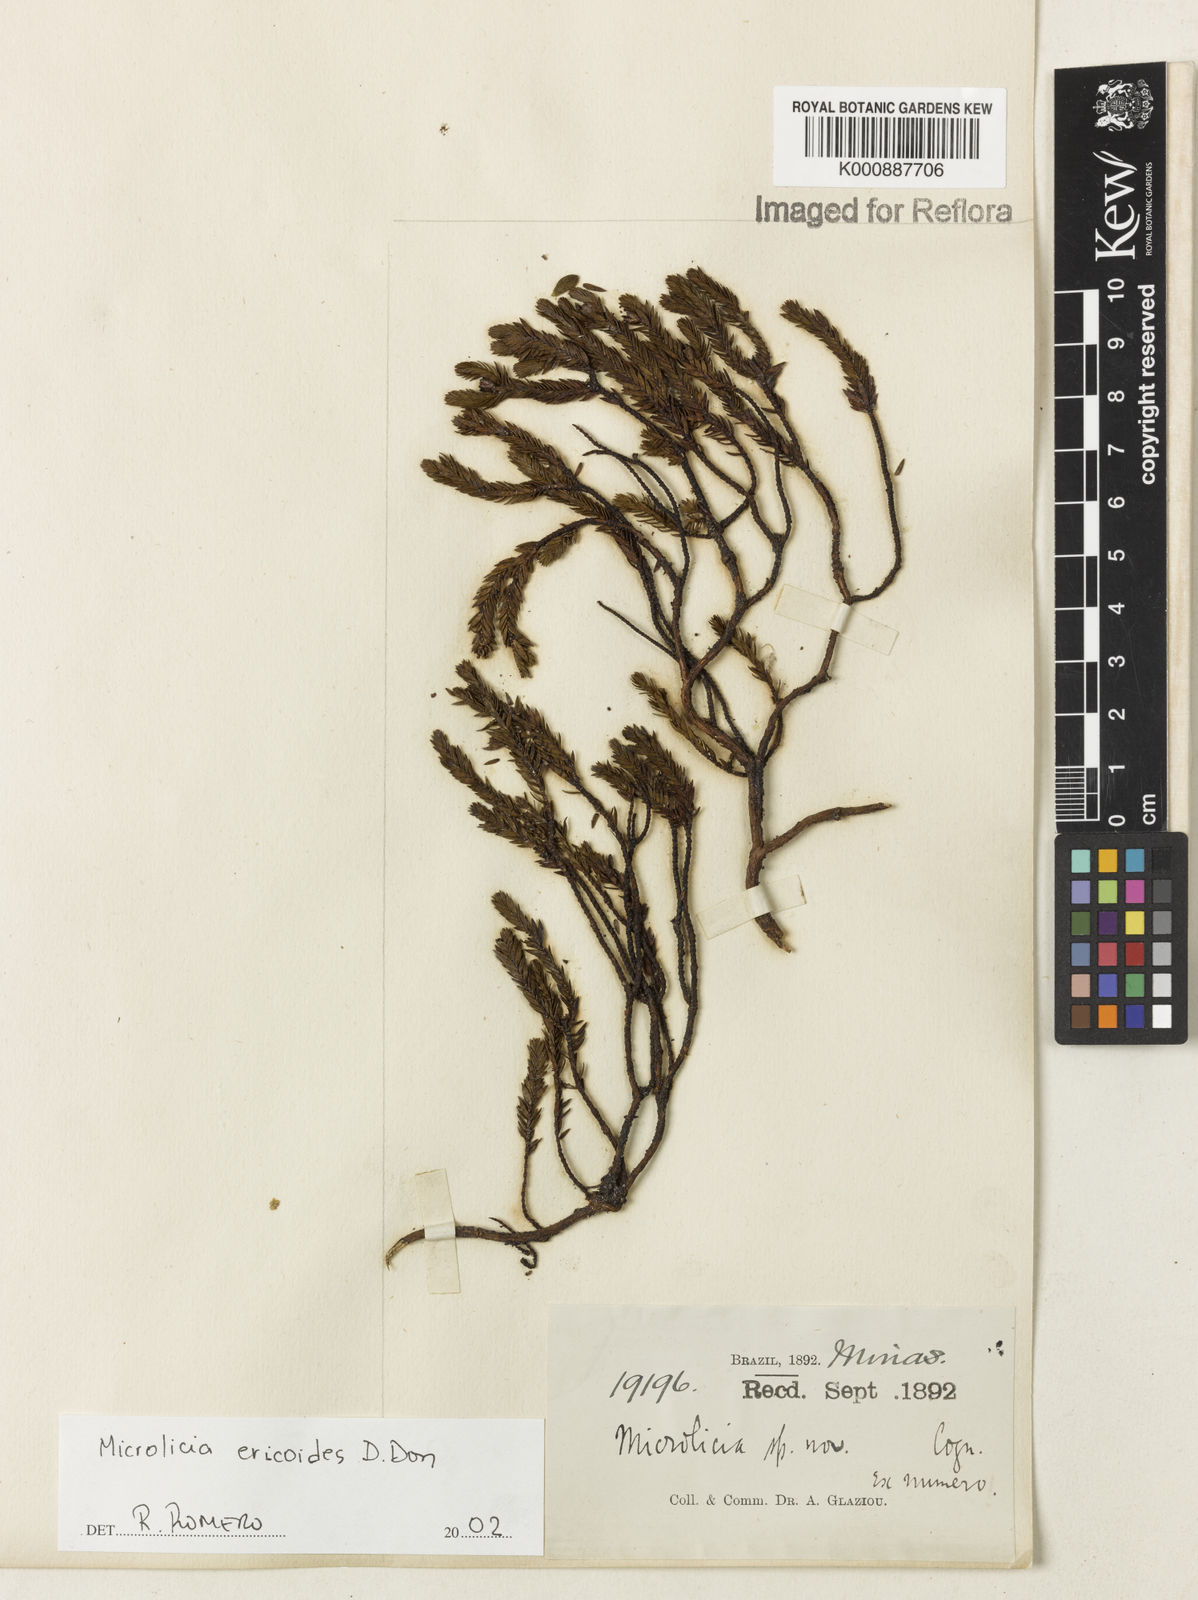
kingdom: Plantae
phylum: Tracheophyta
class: Magnoliopsida
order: Myrtales
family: Melastomataceae
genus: Microlicia
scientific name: Microlicia ericoides
